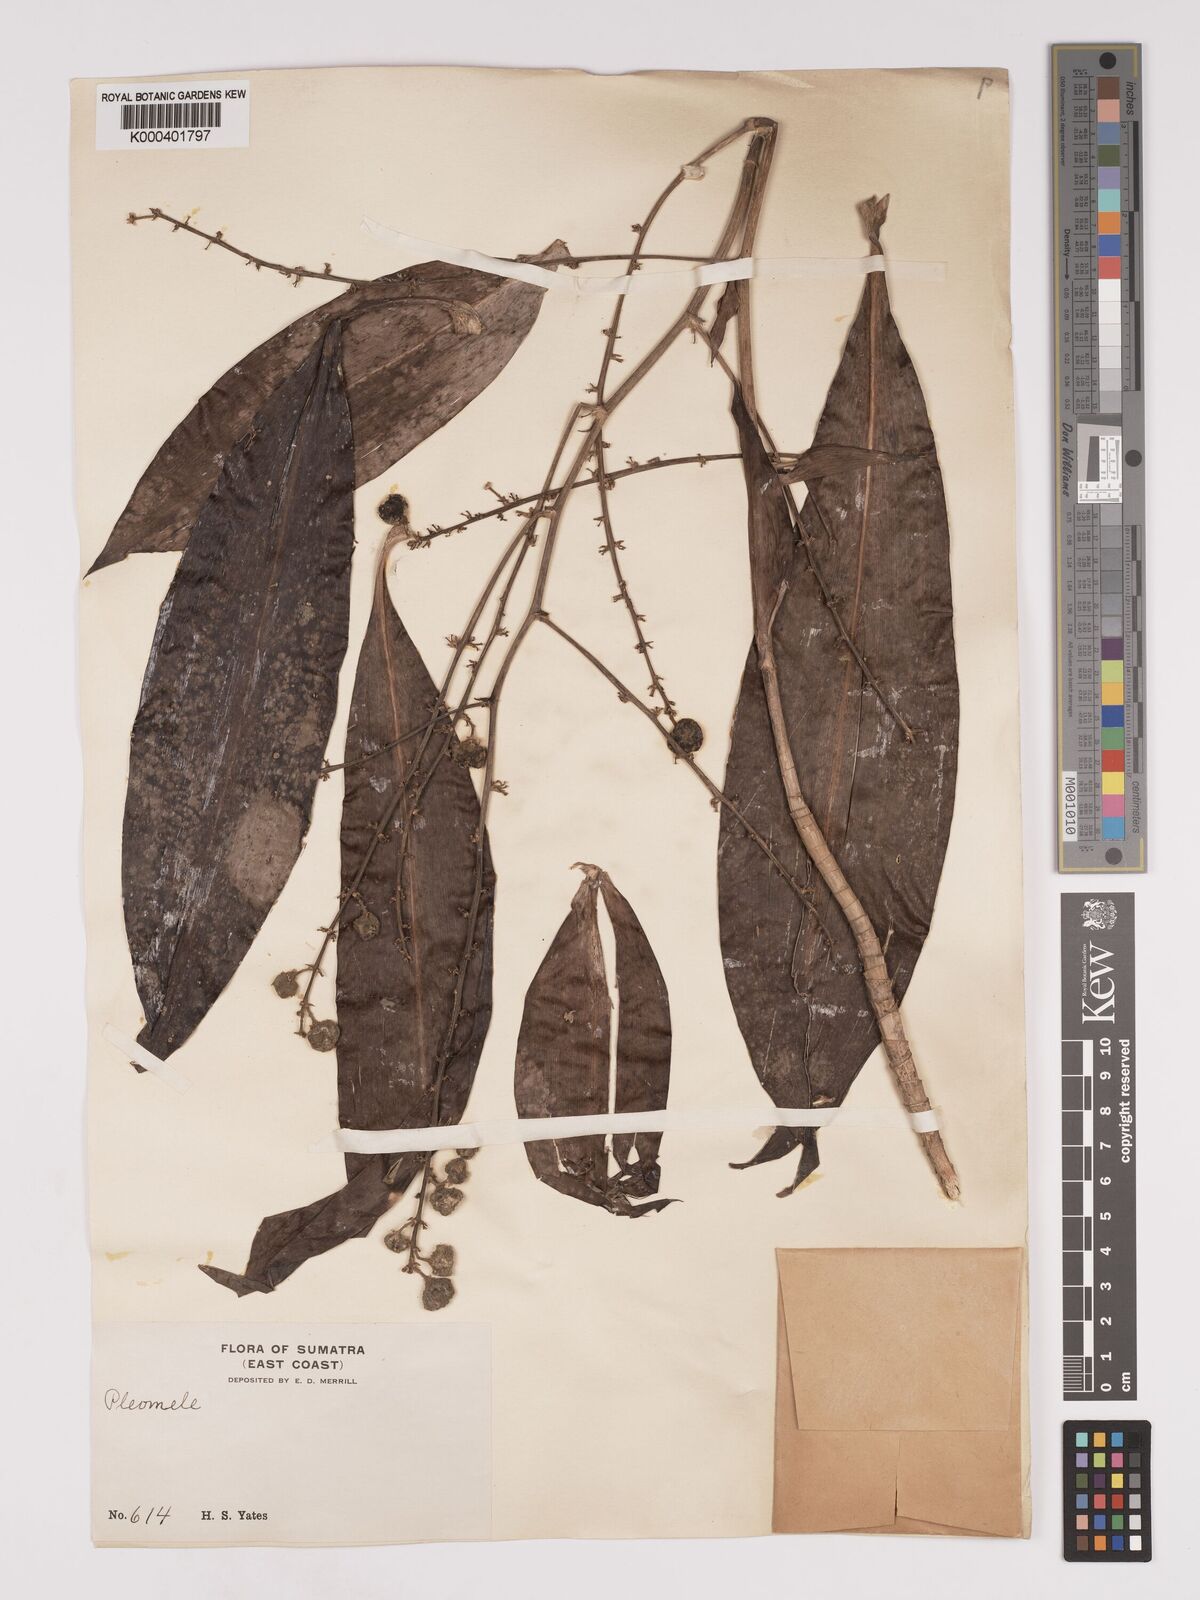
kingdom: Plantae
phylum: Tracheophyta
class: Liliopsida
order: Asparagales
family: Asparagaceae
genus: Dracaena
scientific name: Dracaena
